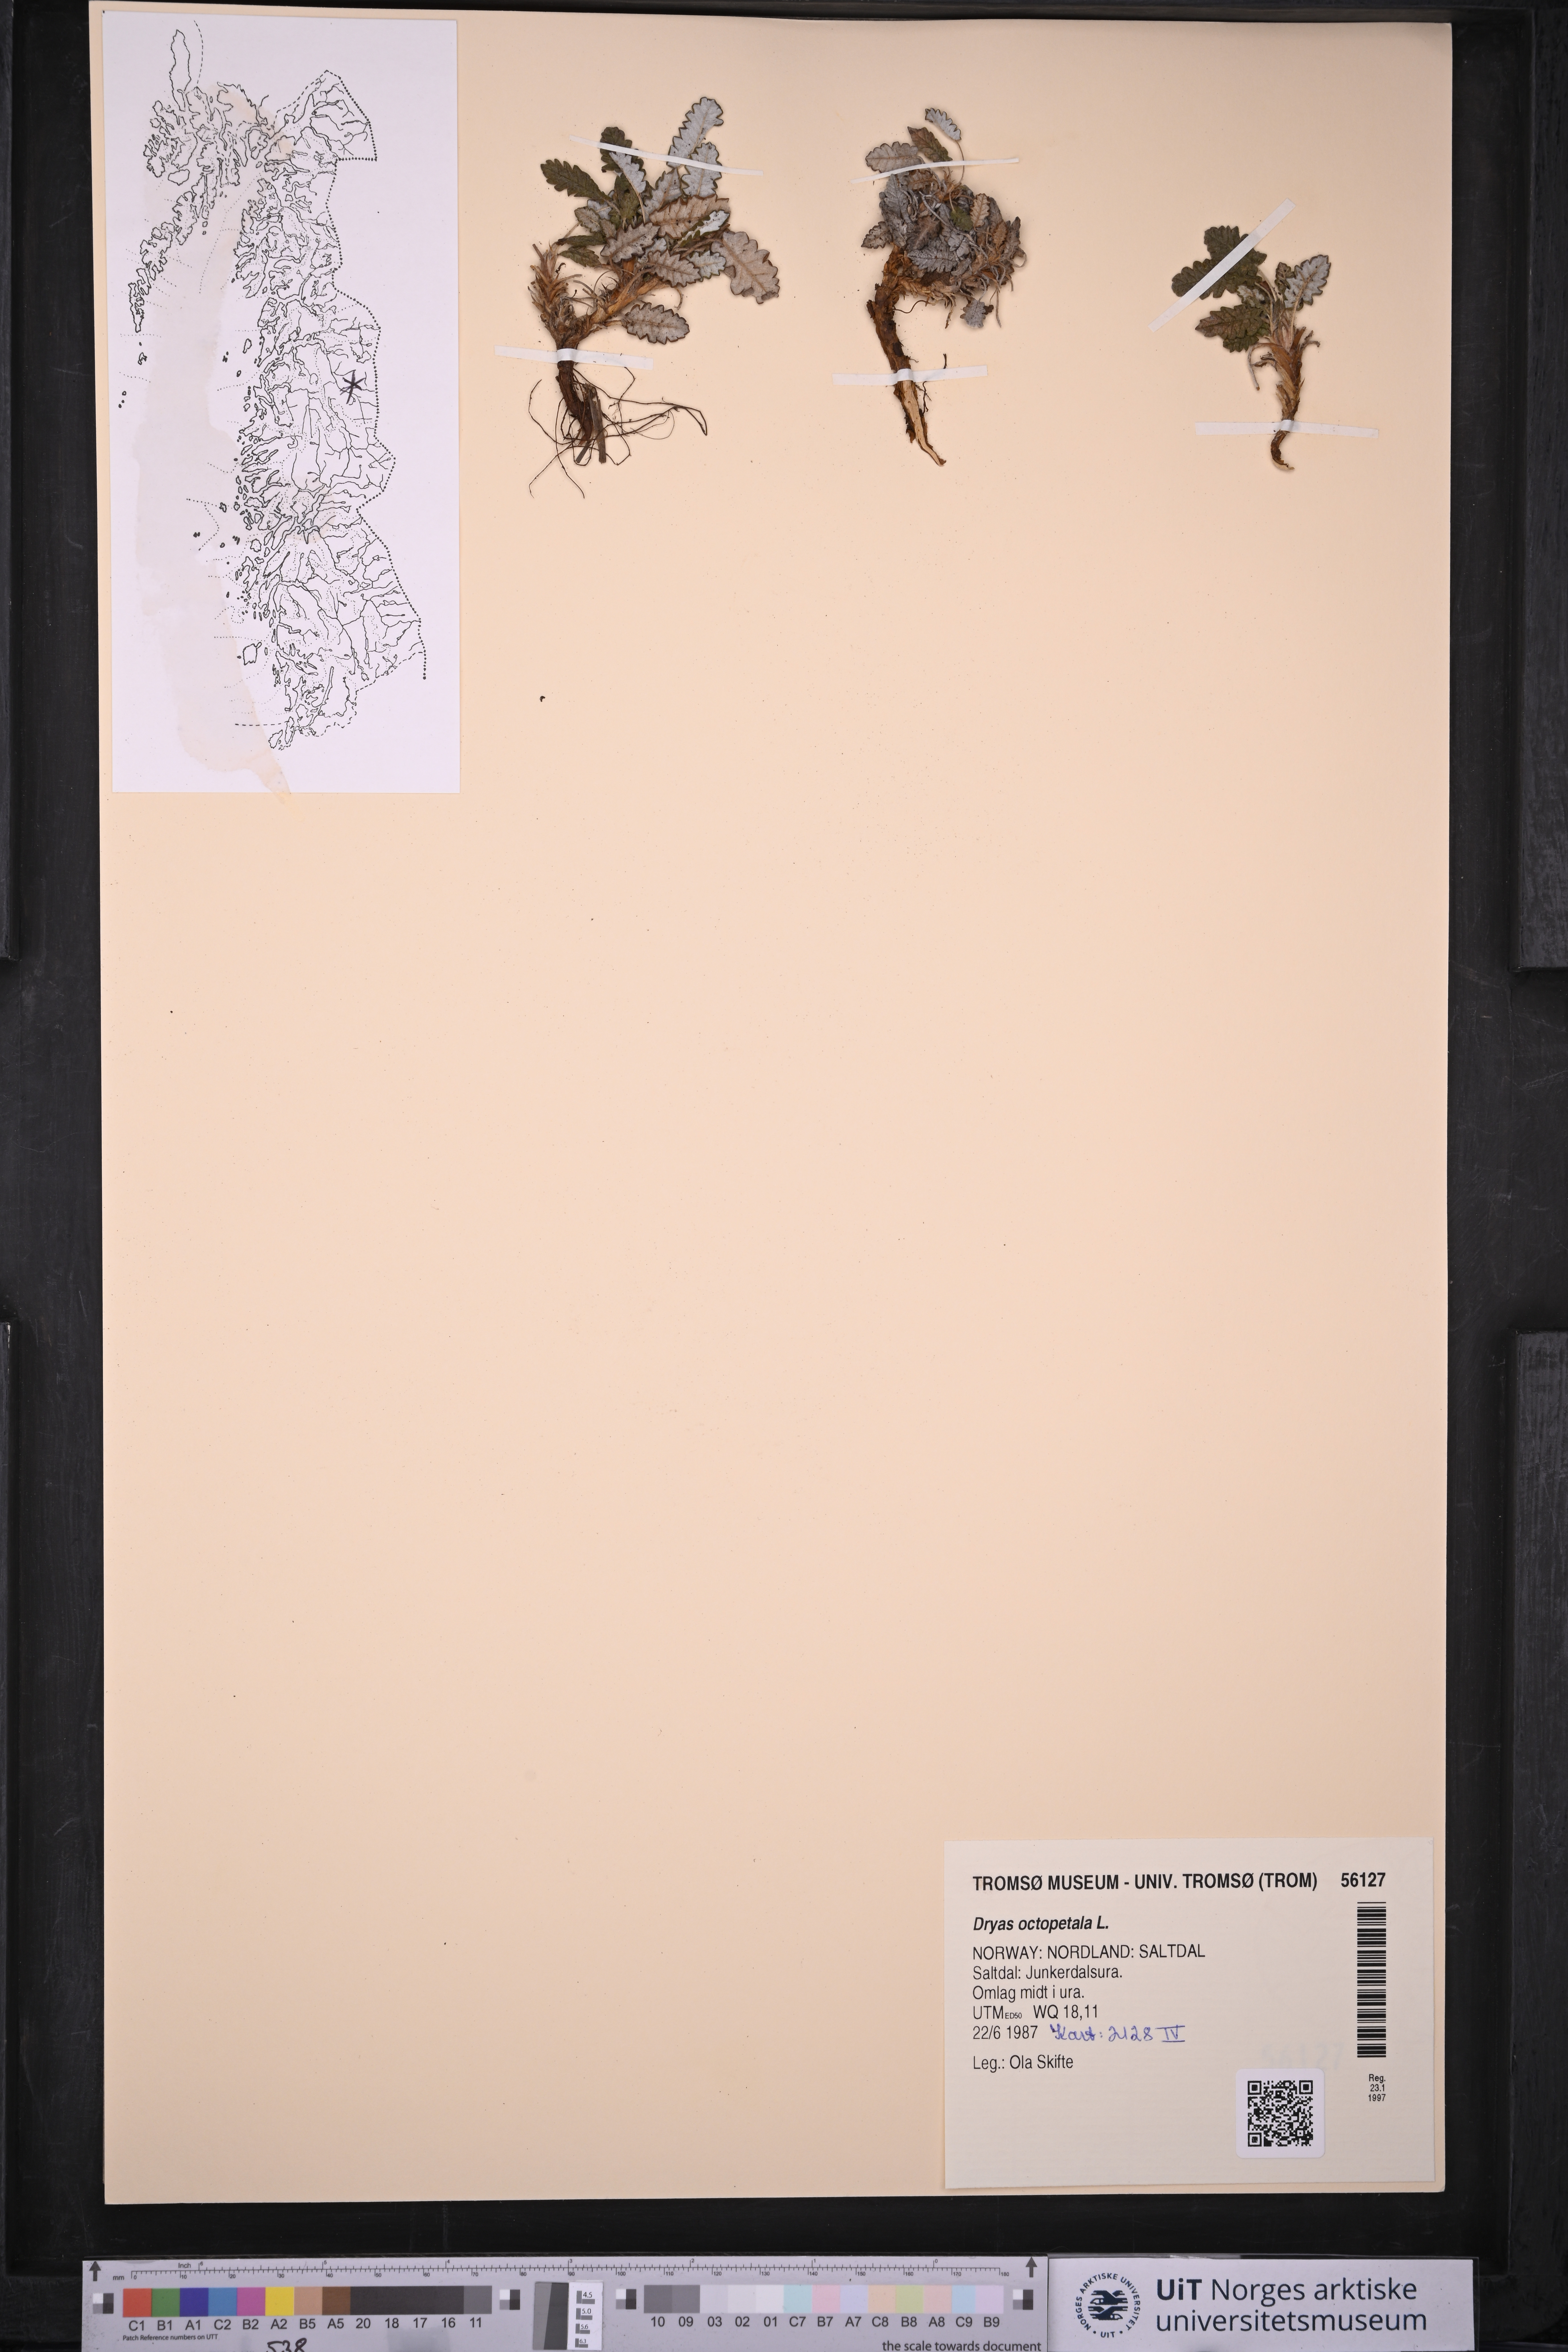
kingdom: Plantae
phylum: Tracheophyta
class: Magnoliopsida
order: Rosales
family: Rosaceae
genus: Dryas
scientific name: Dryas octopetala
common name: Eight-petal mountain-avens
